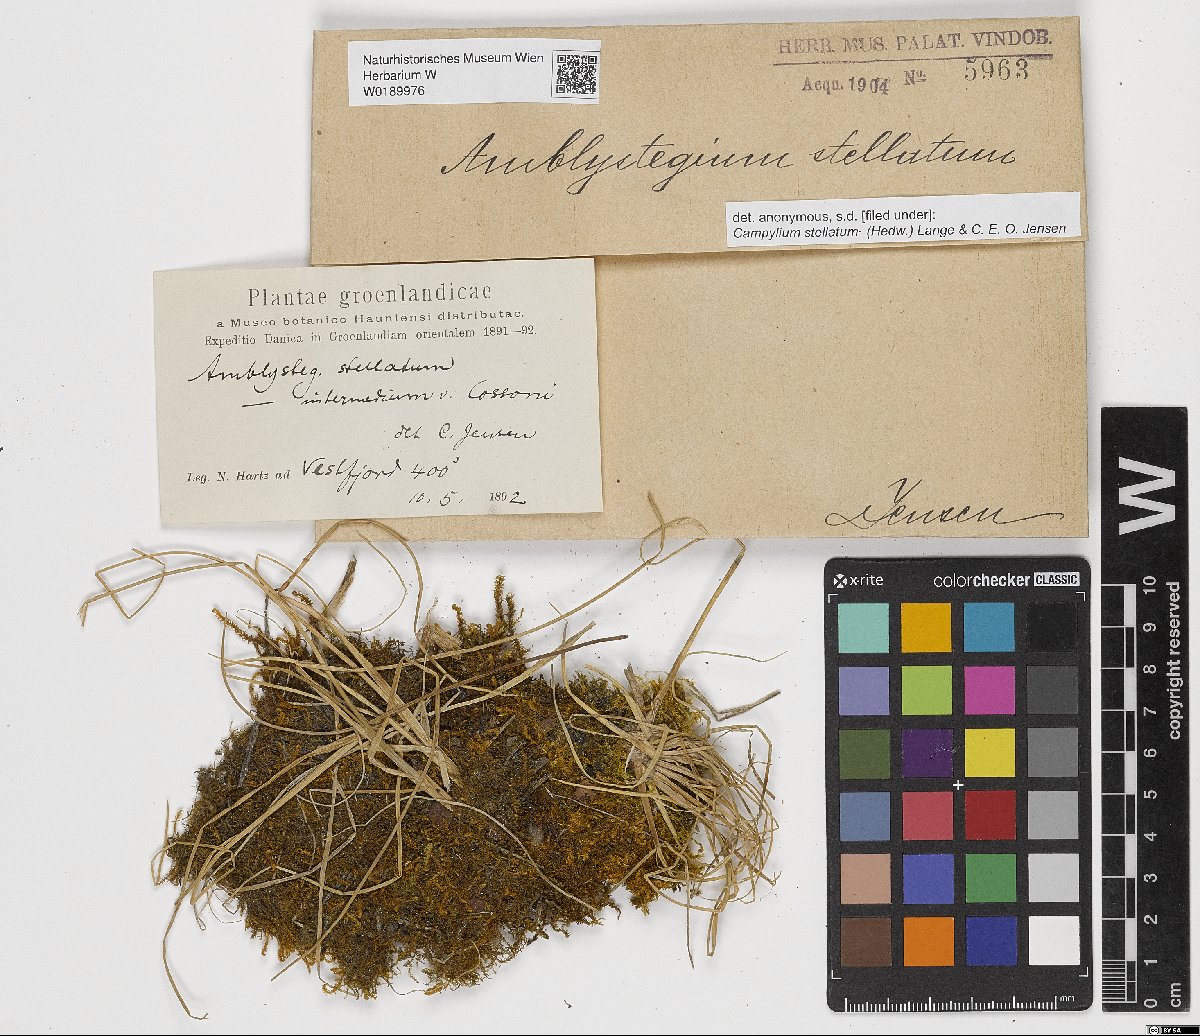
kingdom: Plantae
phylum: Bryophyta
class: Bryopsida
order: Hypnales
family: Amblystegiaceae
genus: Campylium
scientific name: Campylium stellatum
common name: Yellow starry fen moss
